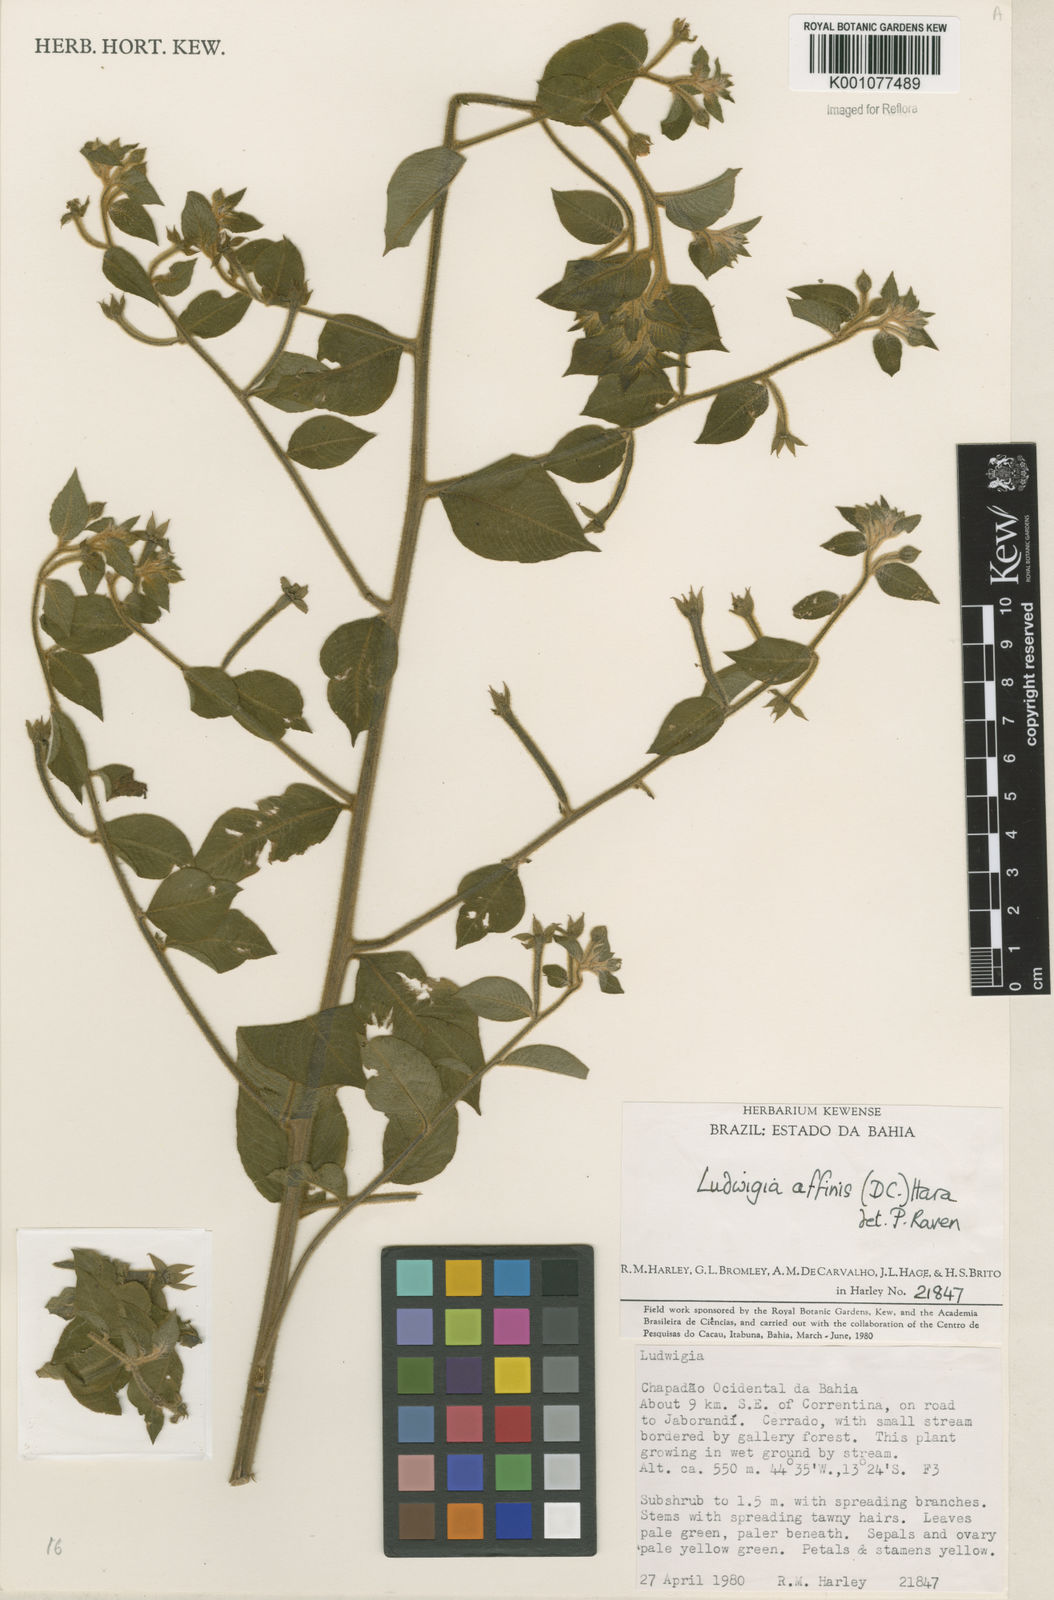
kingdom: Plantae
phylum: Tracheophyta
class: Magnoliopsida
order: Myrtales
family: Onagraceae
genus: Ludwigia
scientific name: Ludwigia affinis
